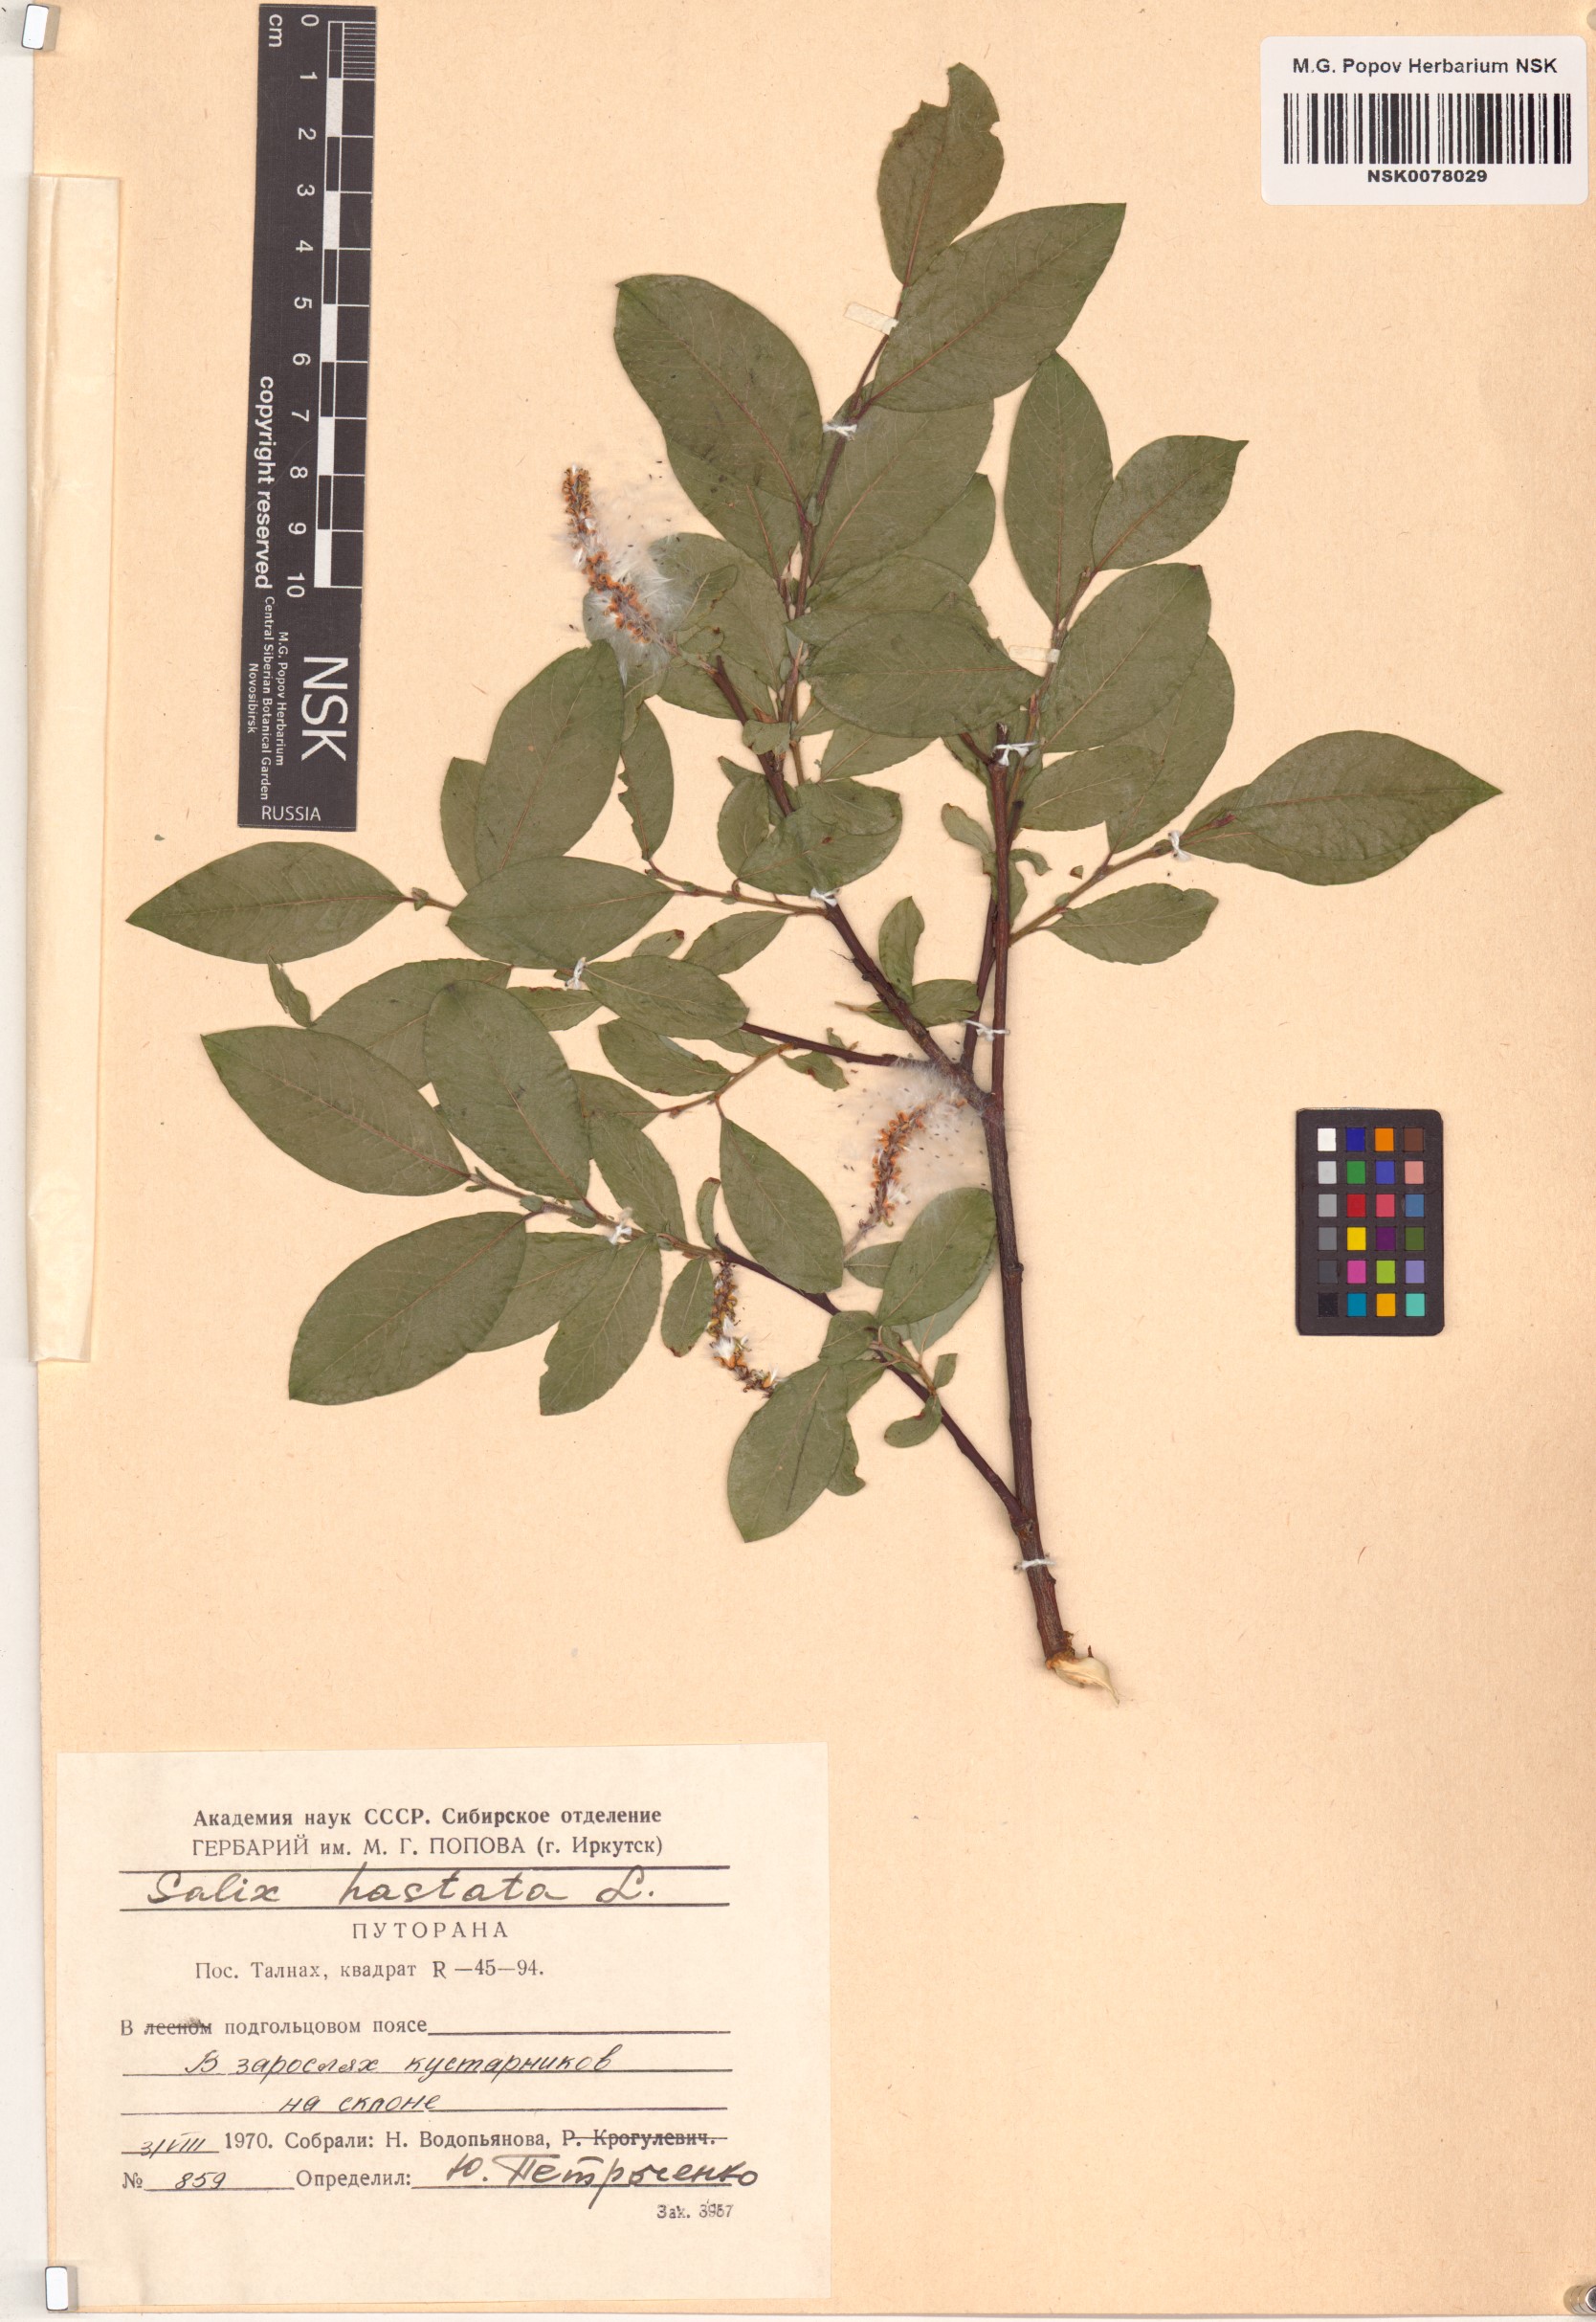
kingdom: Plantae
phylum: Tracheophyta
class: Magnoliopsida
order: Malpighiales
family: Salicaceae
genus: Salix
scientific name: Salix hastata
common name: Halberd willow
